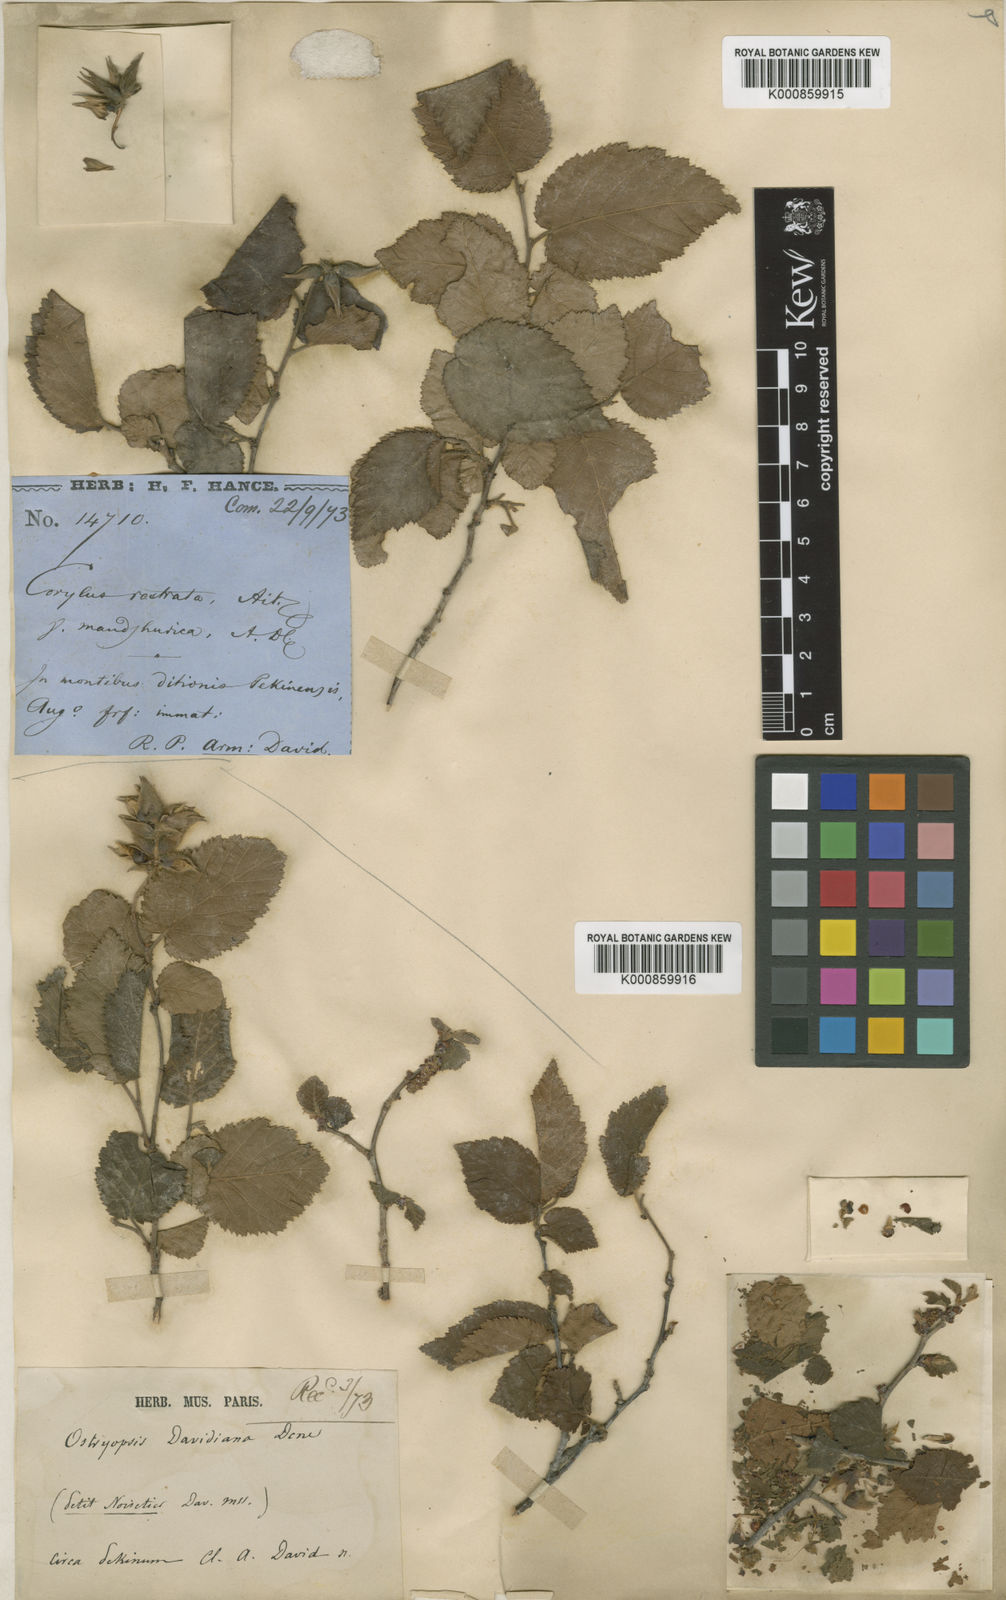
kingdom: Plantae
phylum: Tracheophyta
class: Magnoliopsida
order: Fagales
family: Betulaceae
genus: Ostryopsis
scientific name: Ostryopsis davidiana
